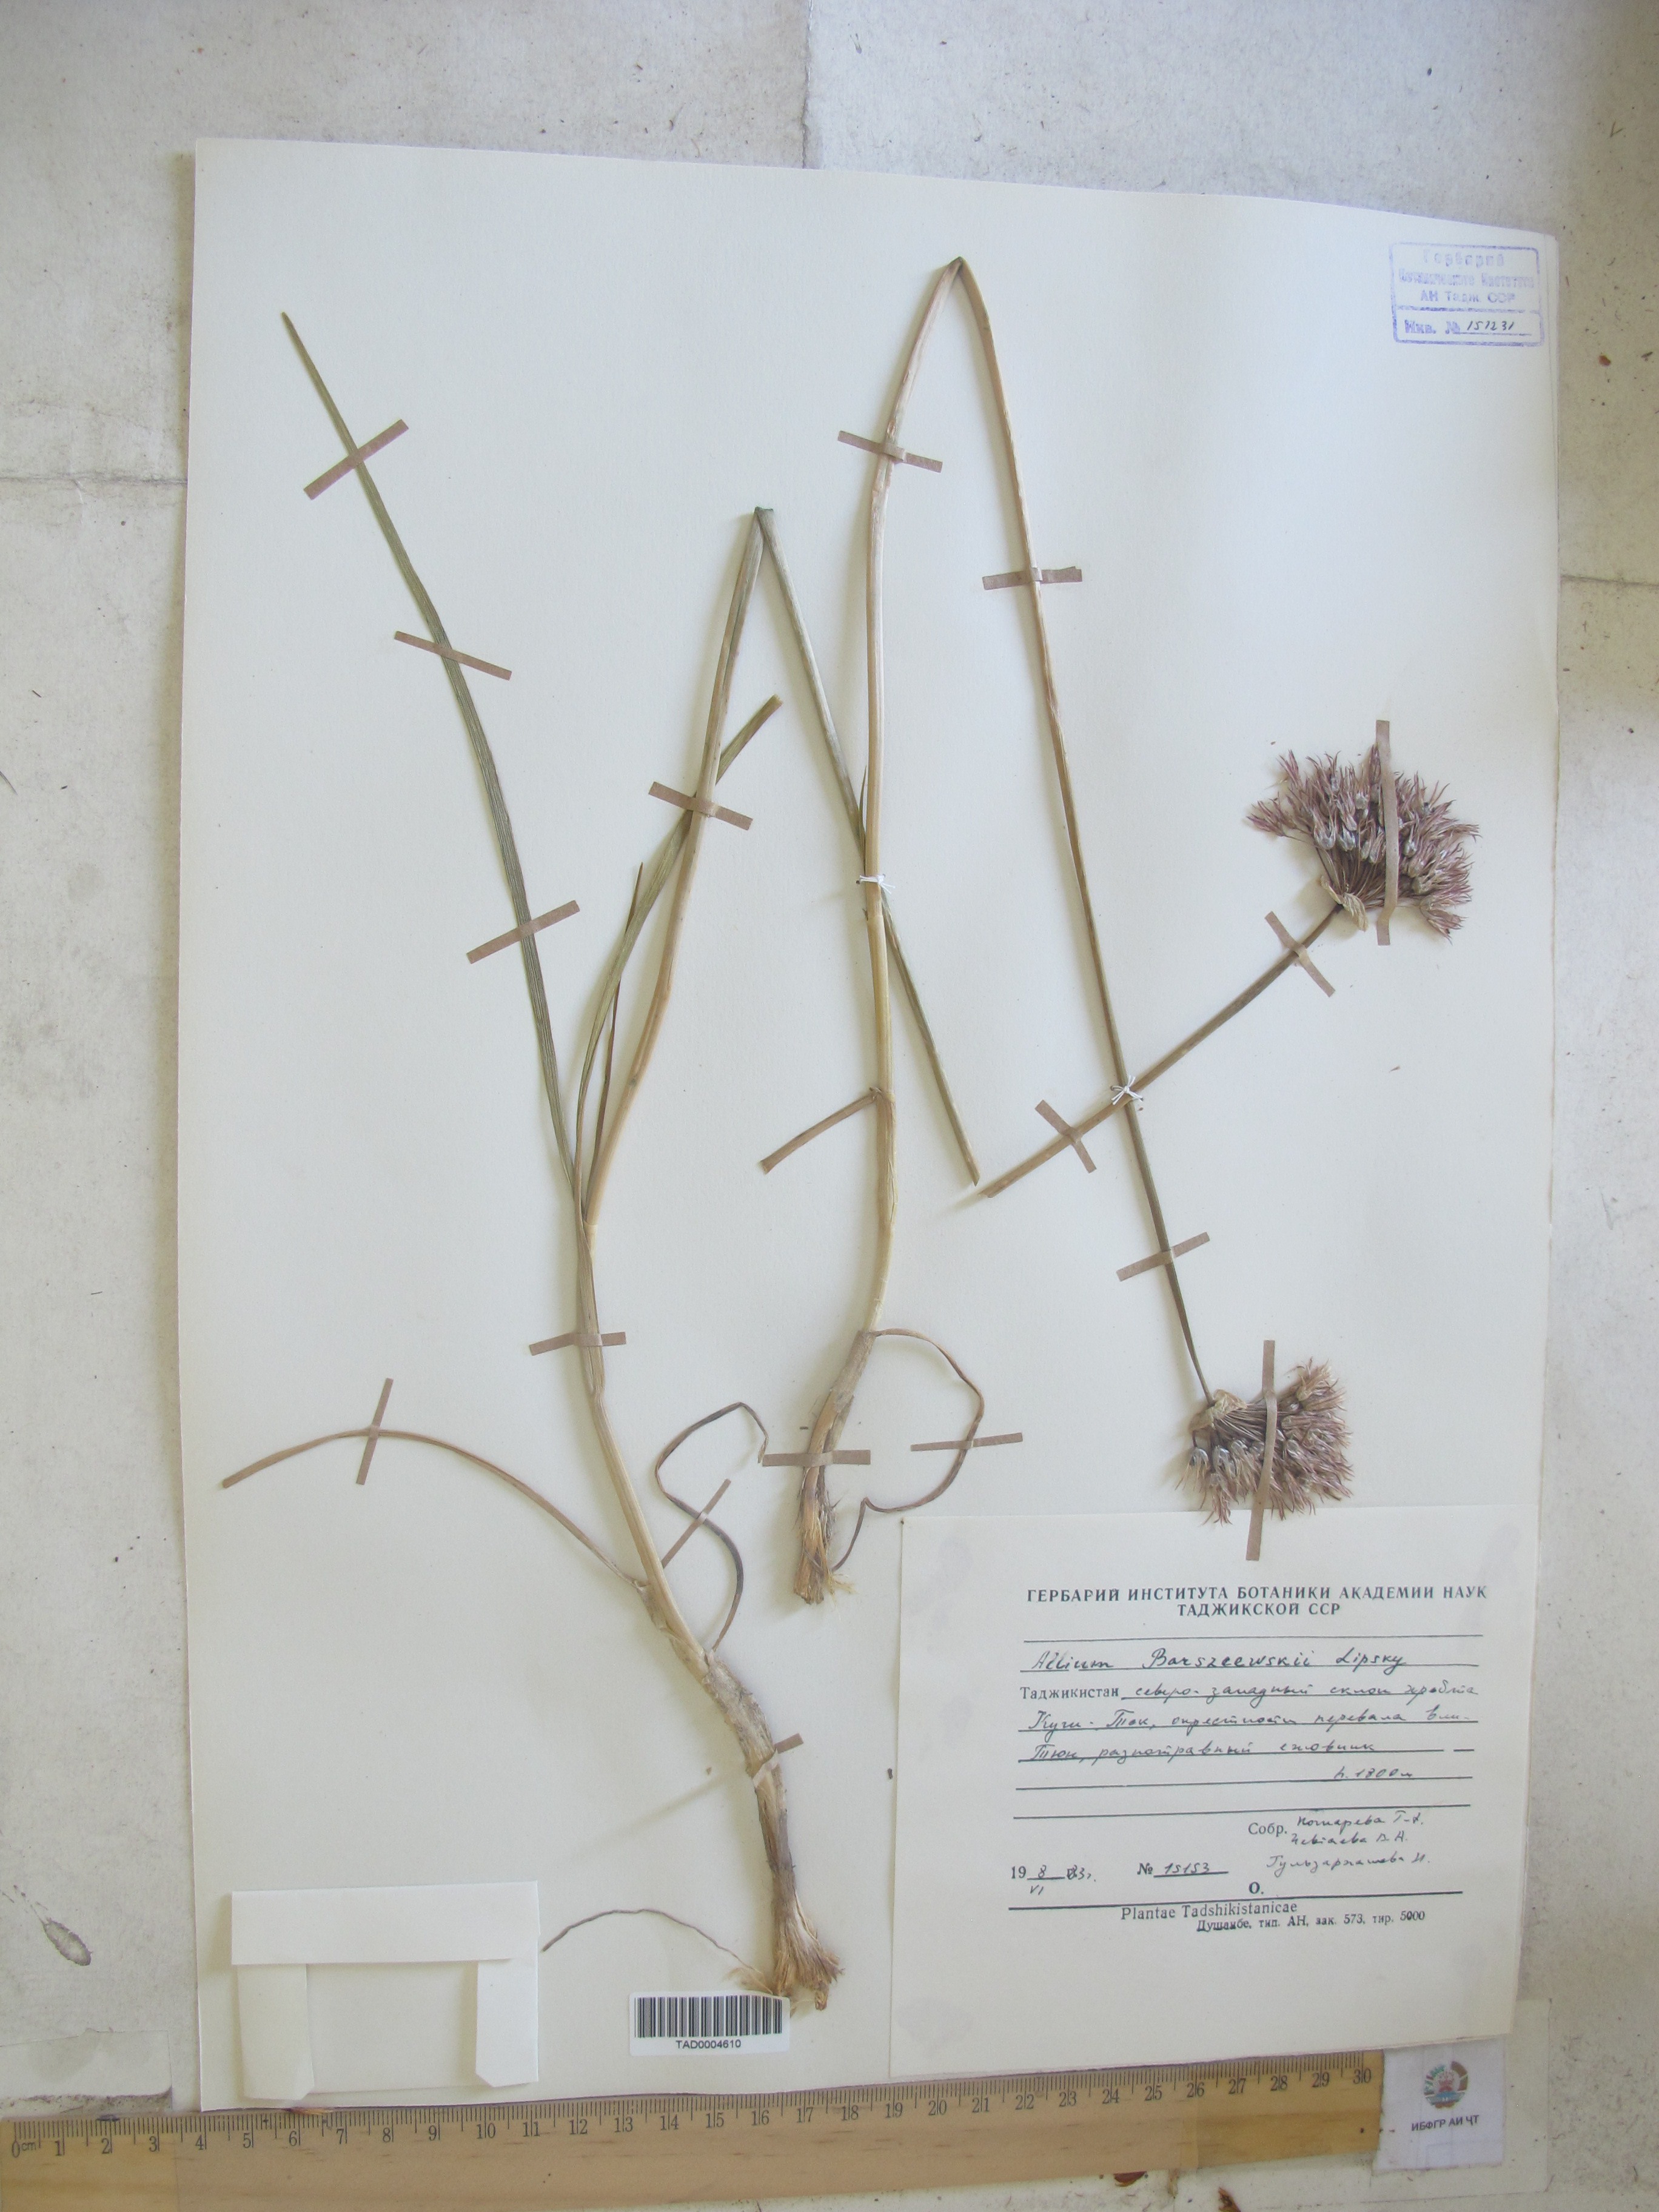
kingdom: Plantae
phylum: Tracheophyta
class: Liliopsida
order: Asparagales
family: Amaryllidaceae
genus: Allium
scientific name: Allium barsczewskii
